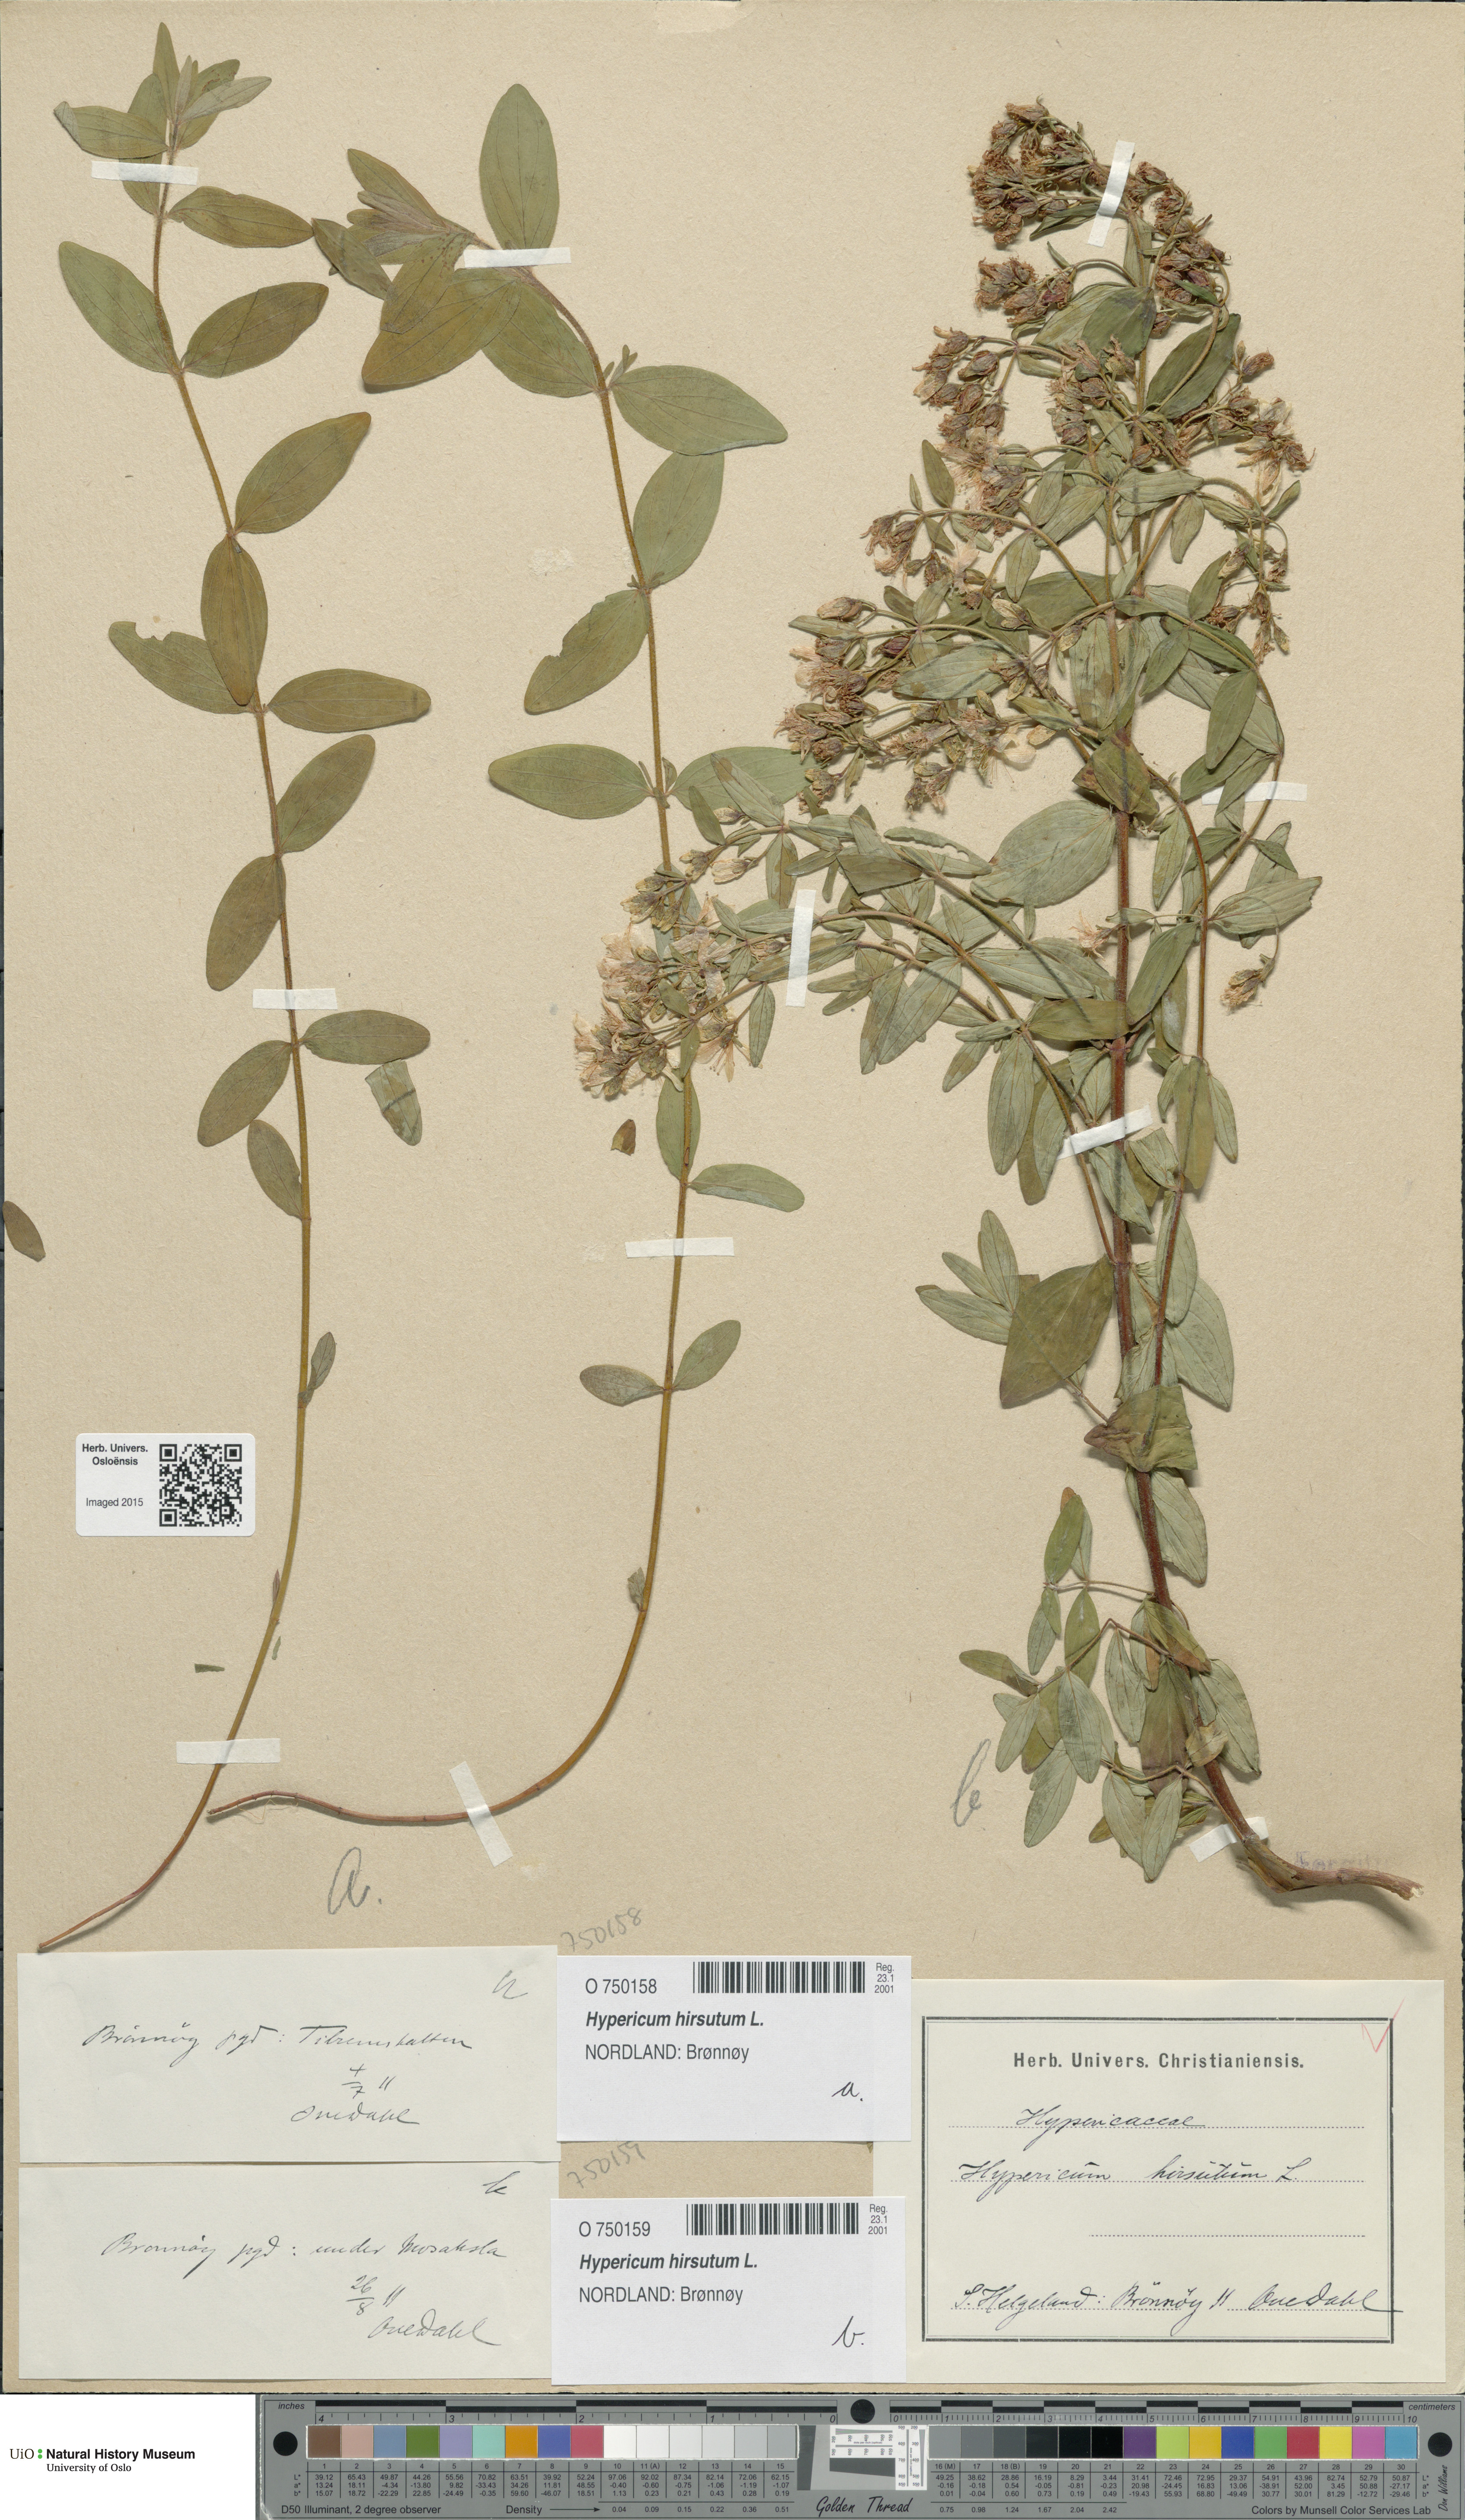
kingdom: Plantae
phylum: Tracheophyta
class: Magnoliopsida
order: Malpighiales
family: Hypericaceae
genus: Hypericum
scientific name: Hypericum hirsutum
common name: Hairy st. john's-wort
